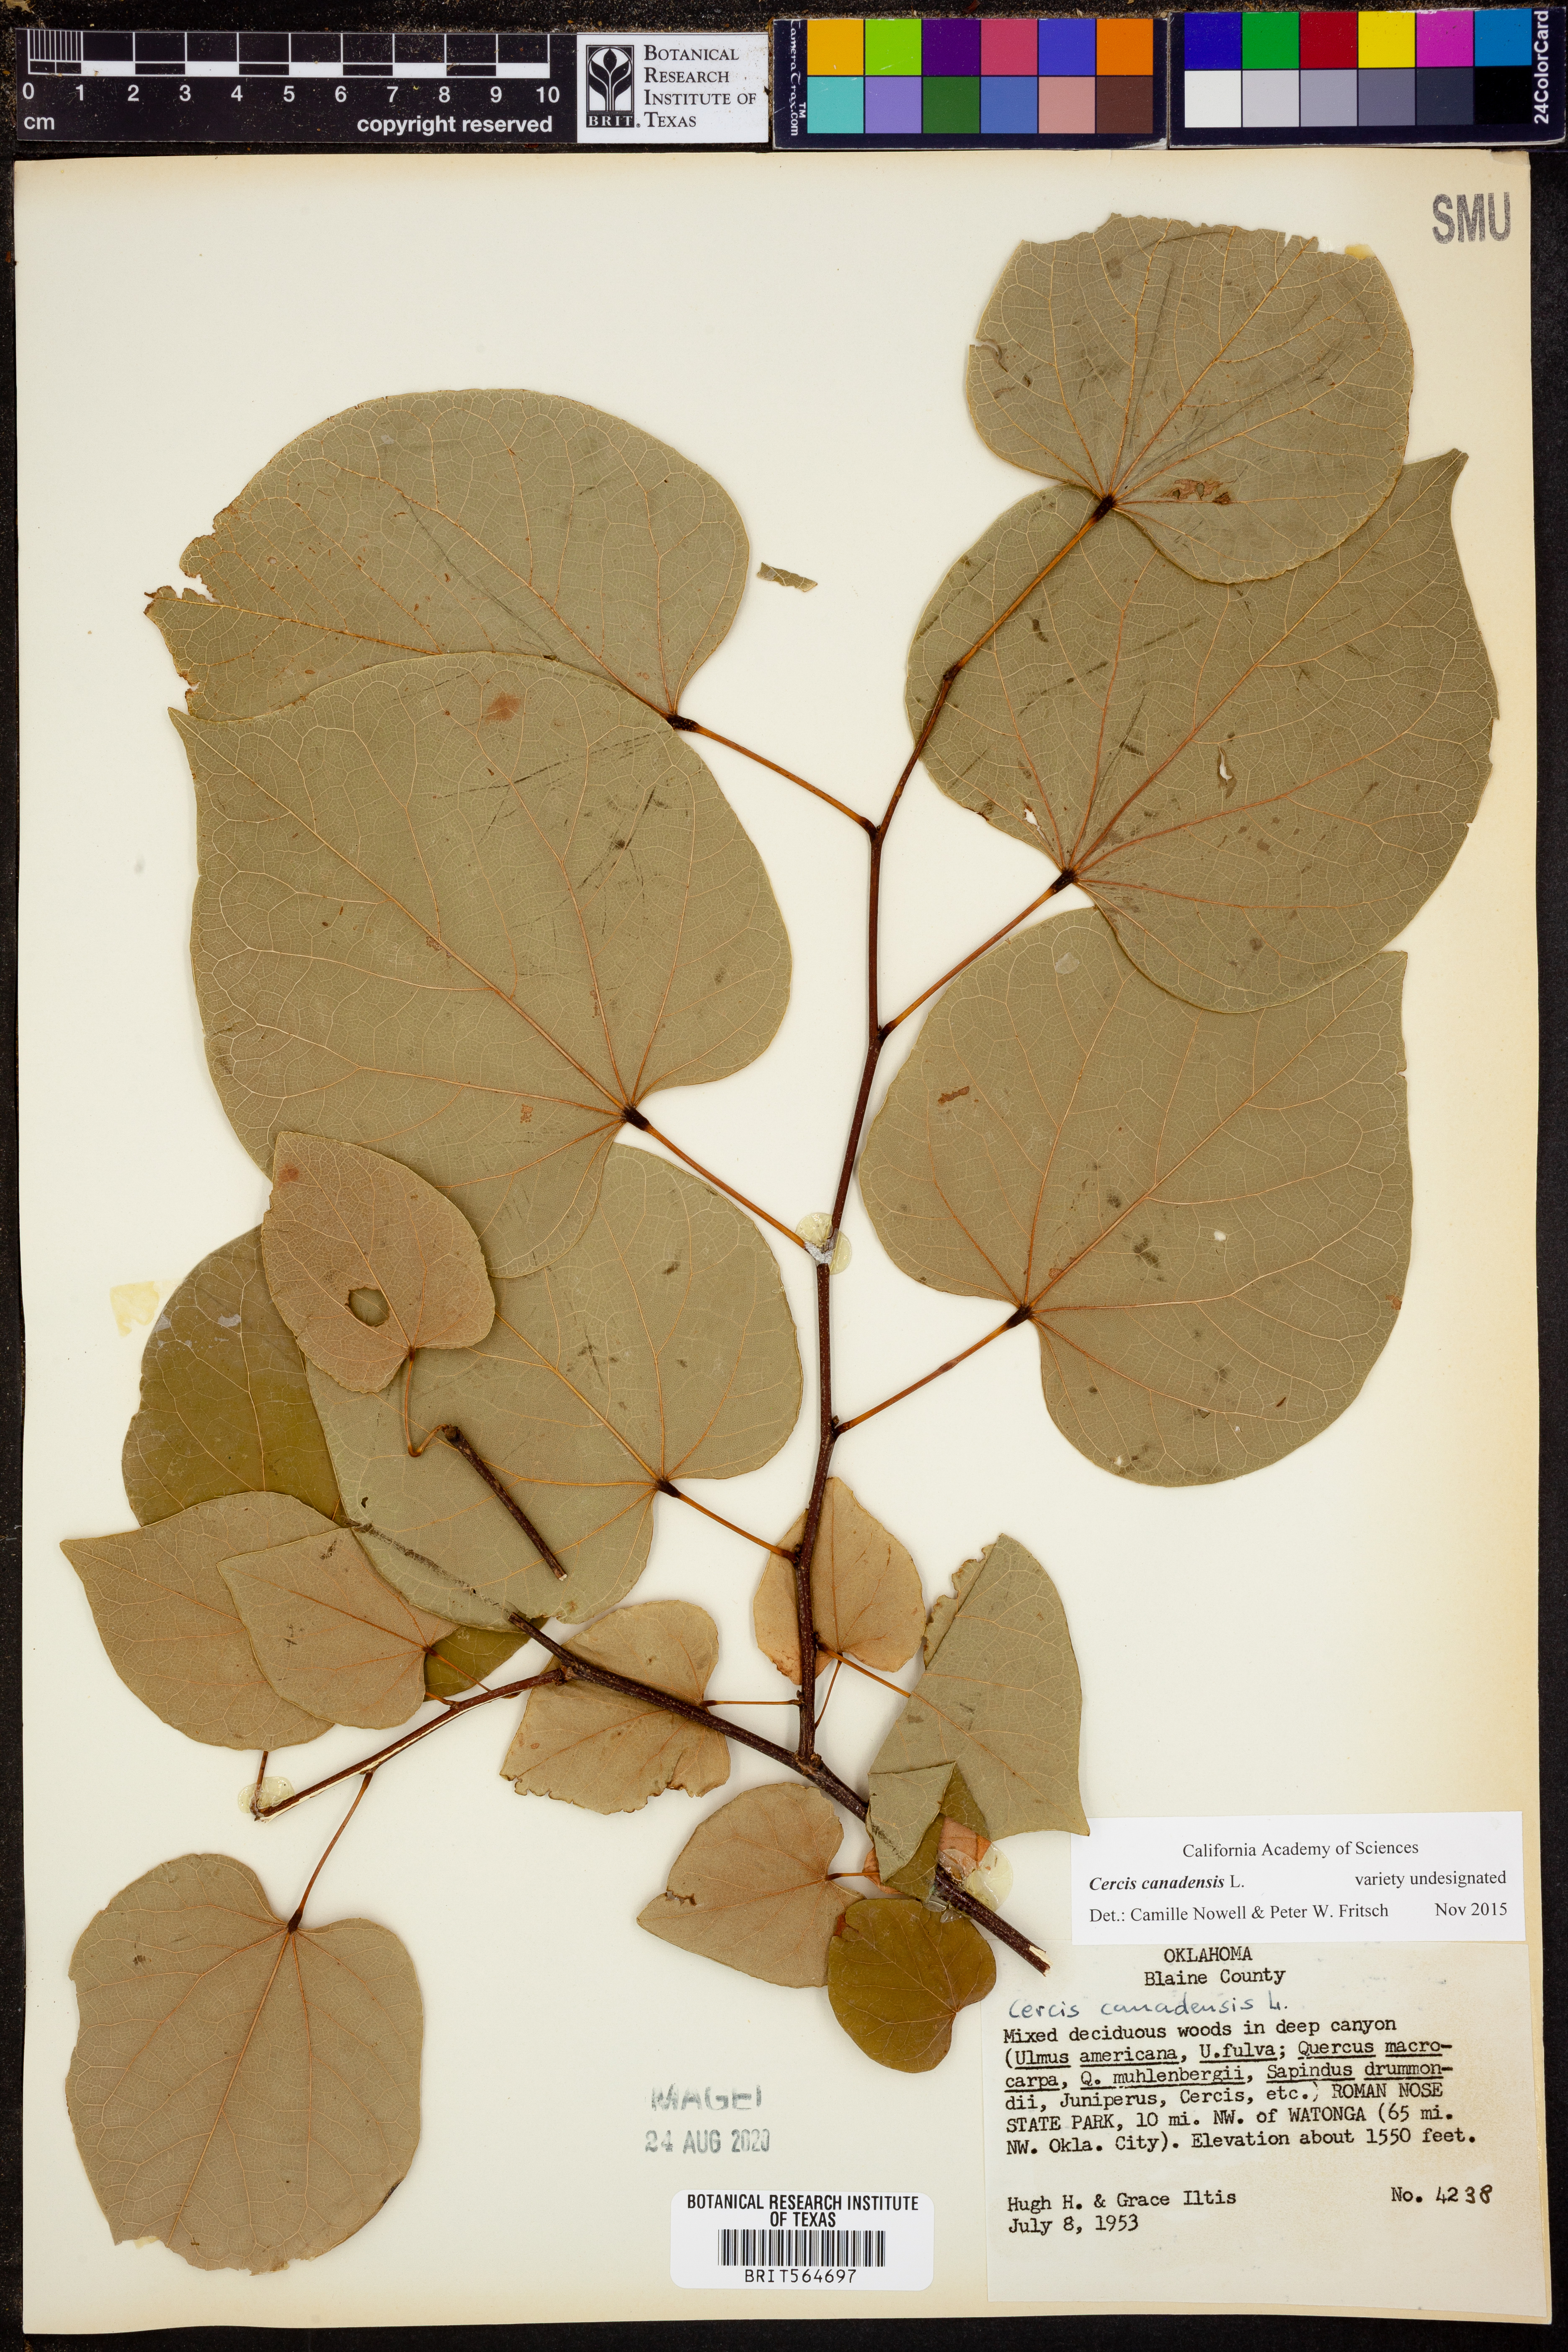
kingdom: Plantae
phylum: Tracheophyta
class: Magnoliopsida
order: Fabales
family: Fabaceae
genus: Cercis
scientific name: Cercis canadensis
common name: Eastern redbud
